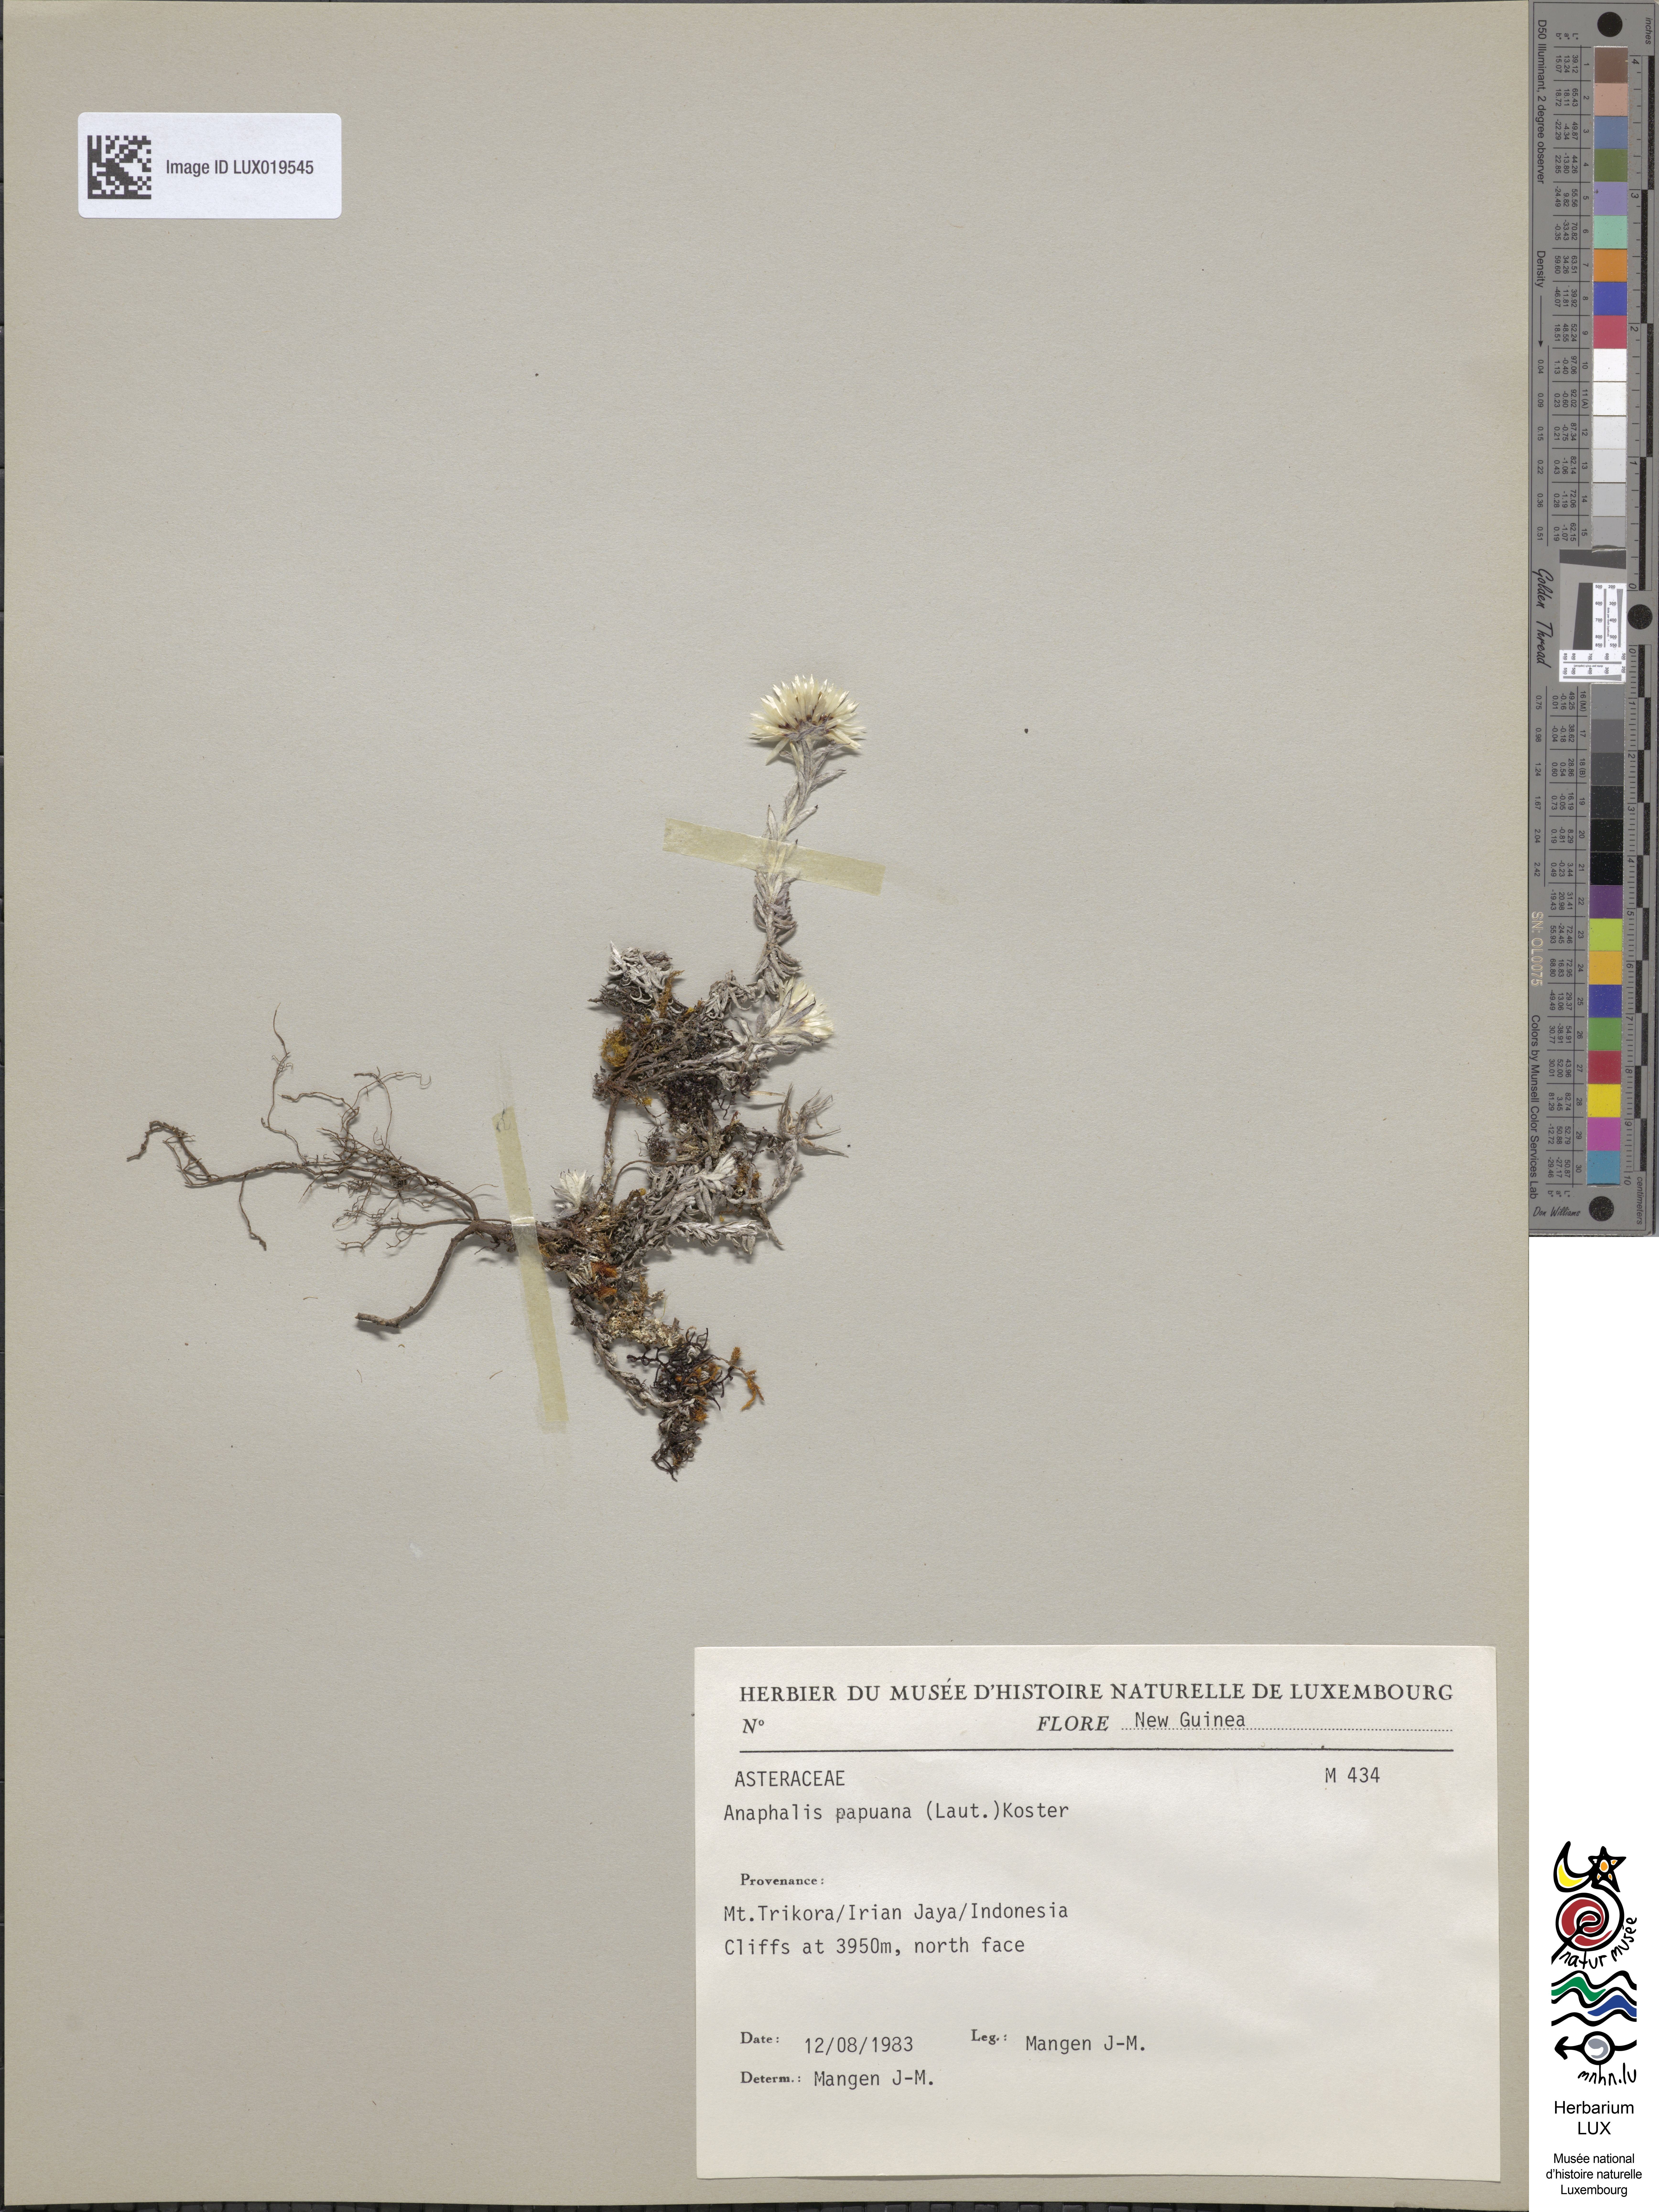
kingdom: Plantae
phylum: Tracheophyta
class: Magnoliopsida
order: Asterales
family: Asteraceae
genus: Anaphalioides
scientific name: Anaphalioides papuana
